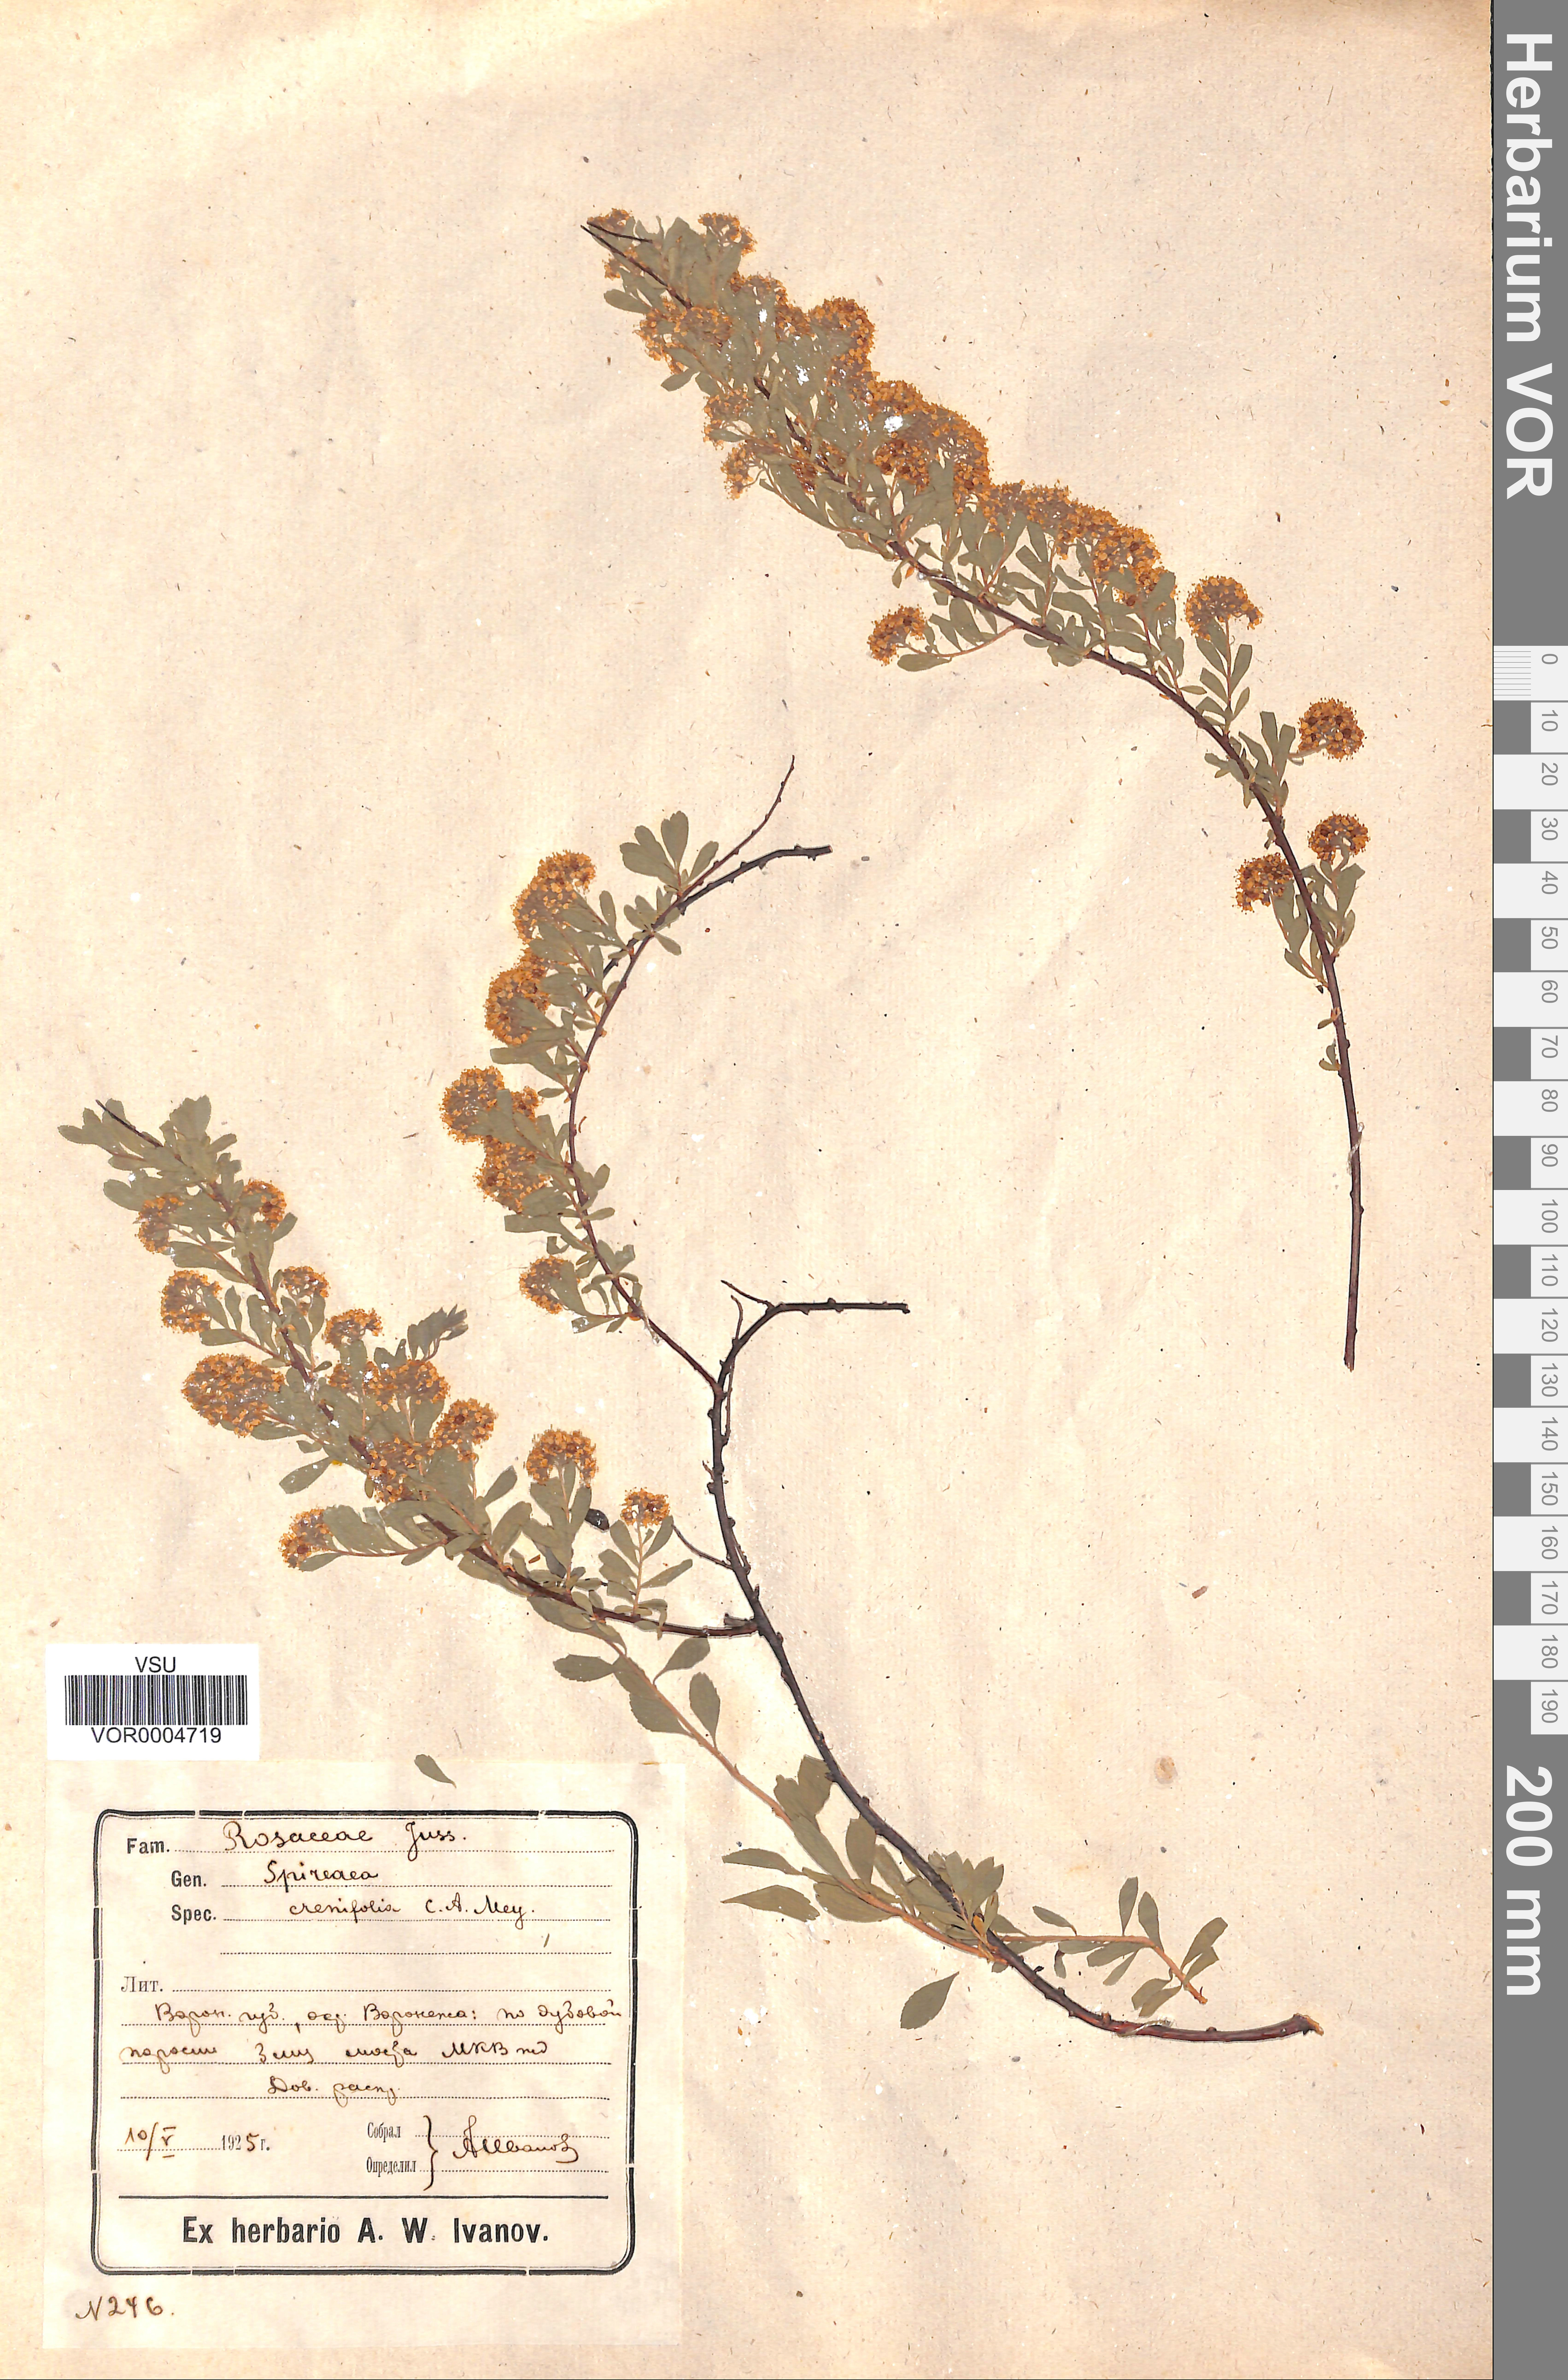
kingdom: Plantae
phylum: Tracheophyta
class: Magnoliopsida
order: Rosales
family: Rosaceae
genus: Spiraea
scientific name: Spiraea crenata
